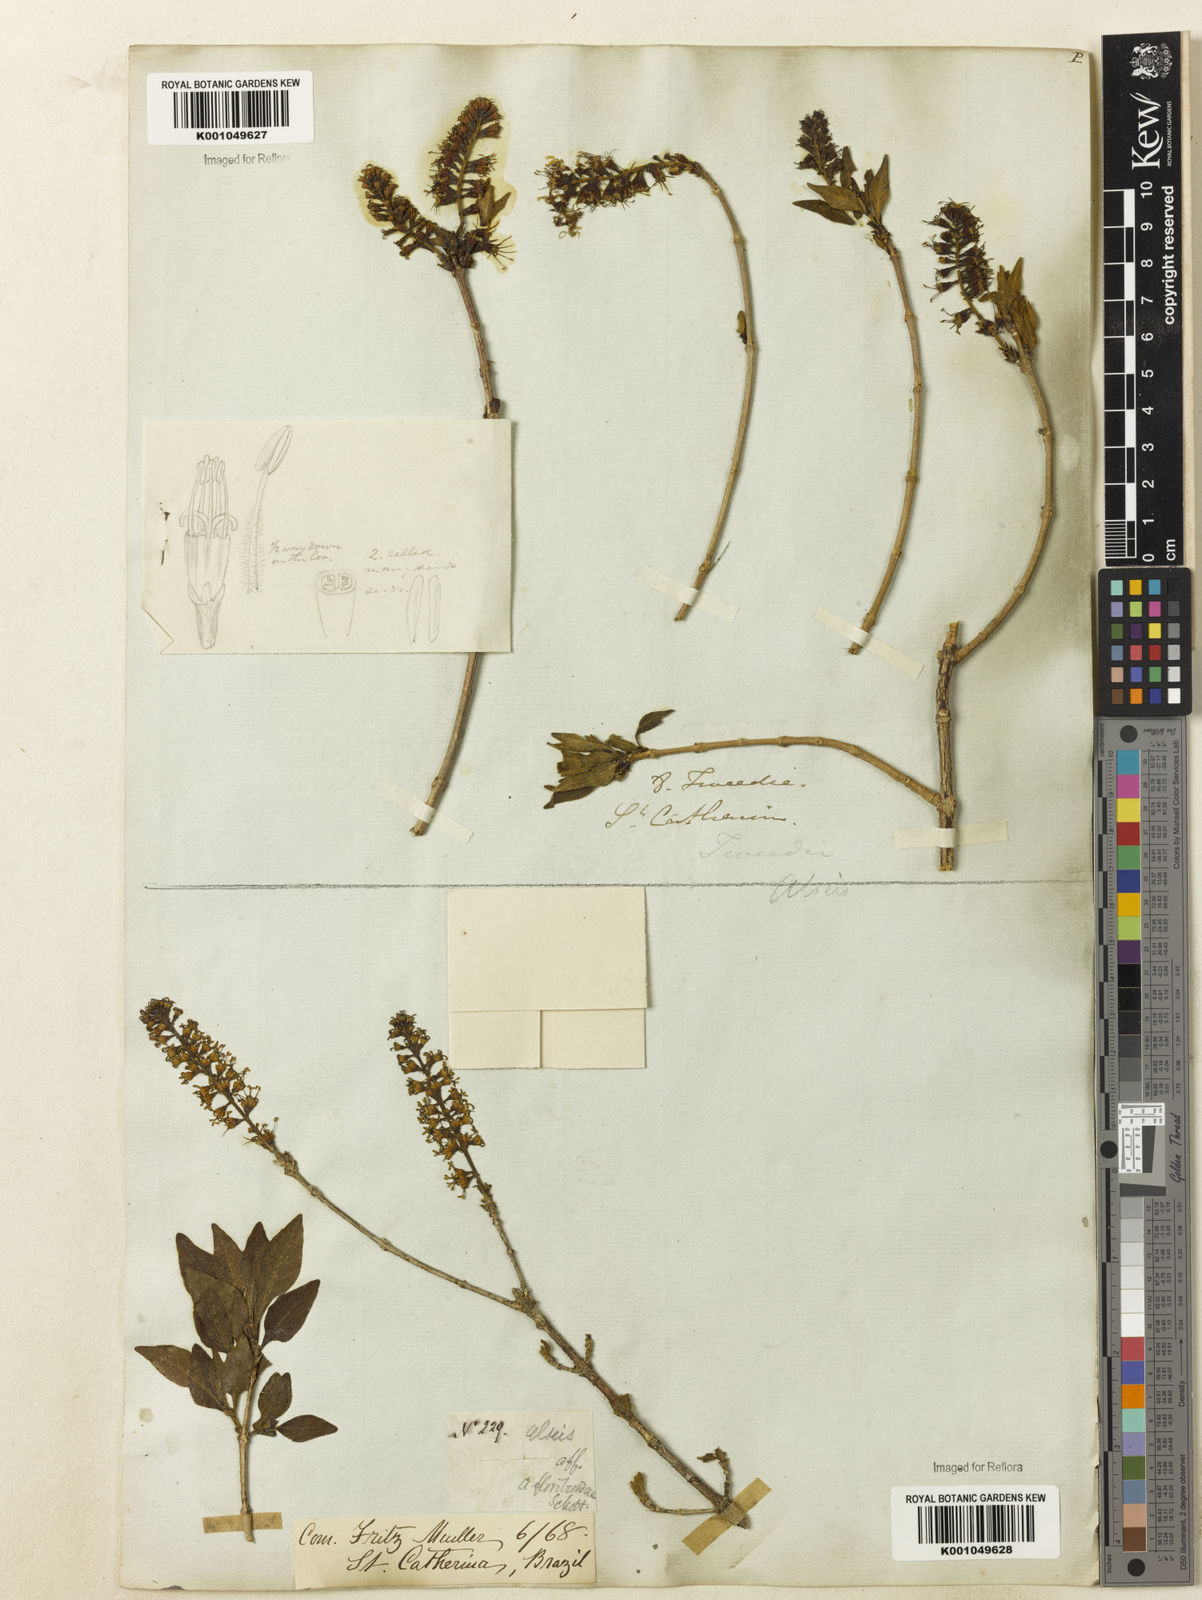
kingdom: Plantae
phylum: Tracheophyta
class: Magnoliopsida
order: Gentianales
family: Rubiaceae
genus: Alseis
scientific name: Alseis gardneri
